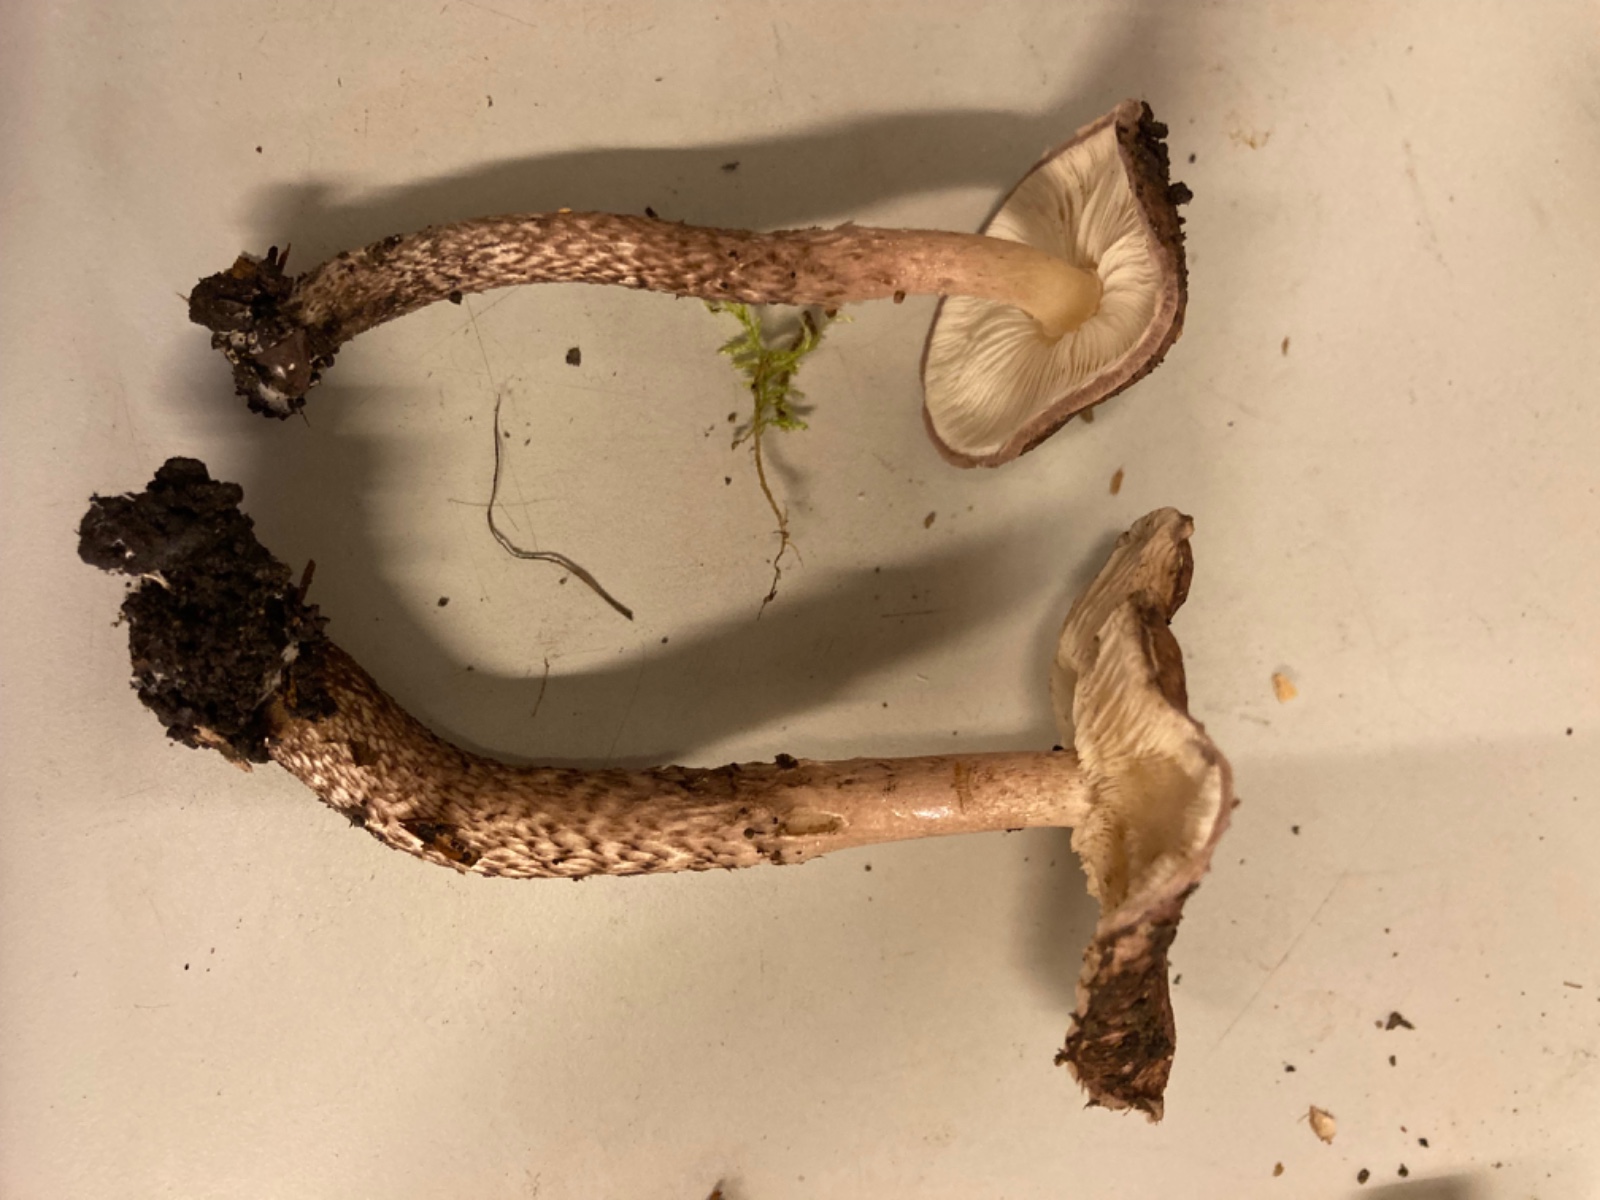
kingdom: Fungi
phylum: Basidiomycota
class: Agaricomycetes
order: Agaricales
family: Agaricaceae
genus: Lepiota
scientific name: Lepiota fuscovinacea
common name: vinrød parasolhat
